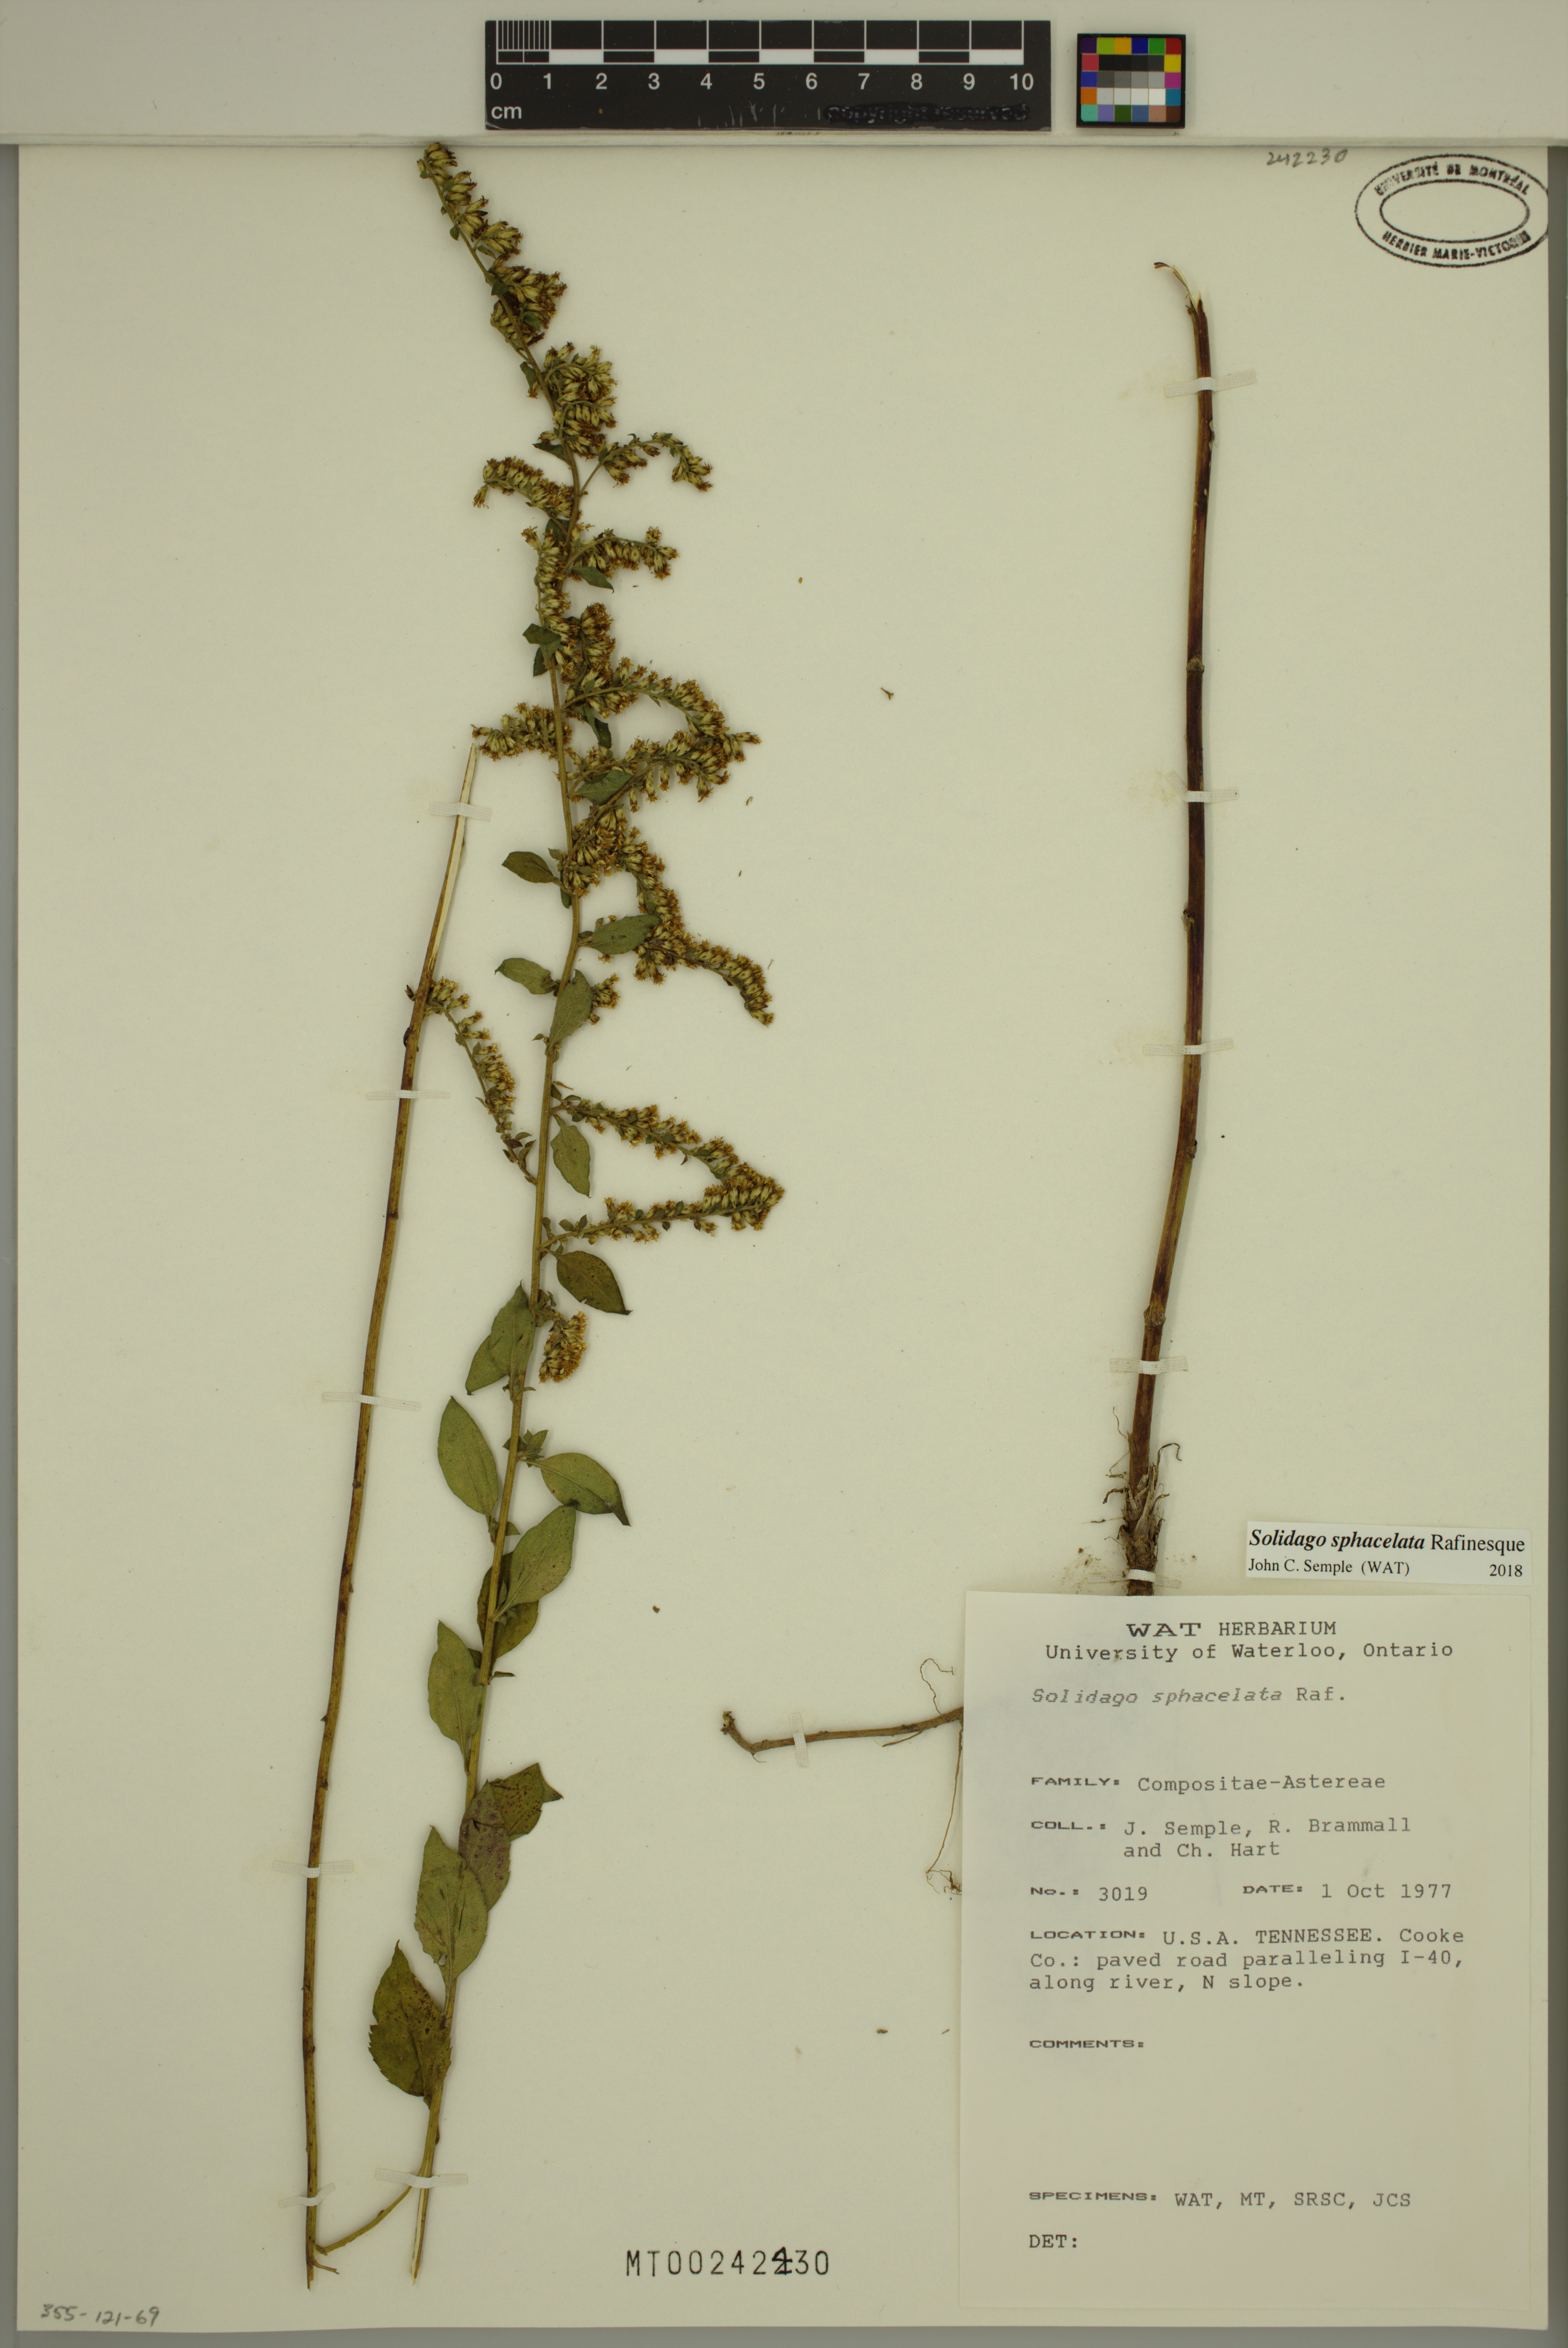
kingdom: Plantae
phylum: Tracheophyta
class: Magnoliopsida
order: Asterales
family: Asteraceae
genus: Solidago
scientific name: Solidago sphacelata
